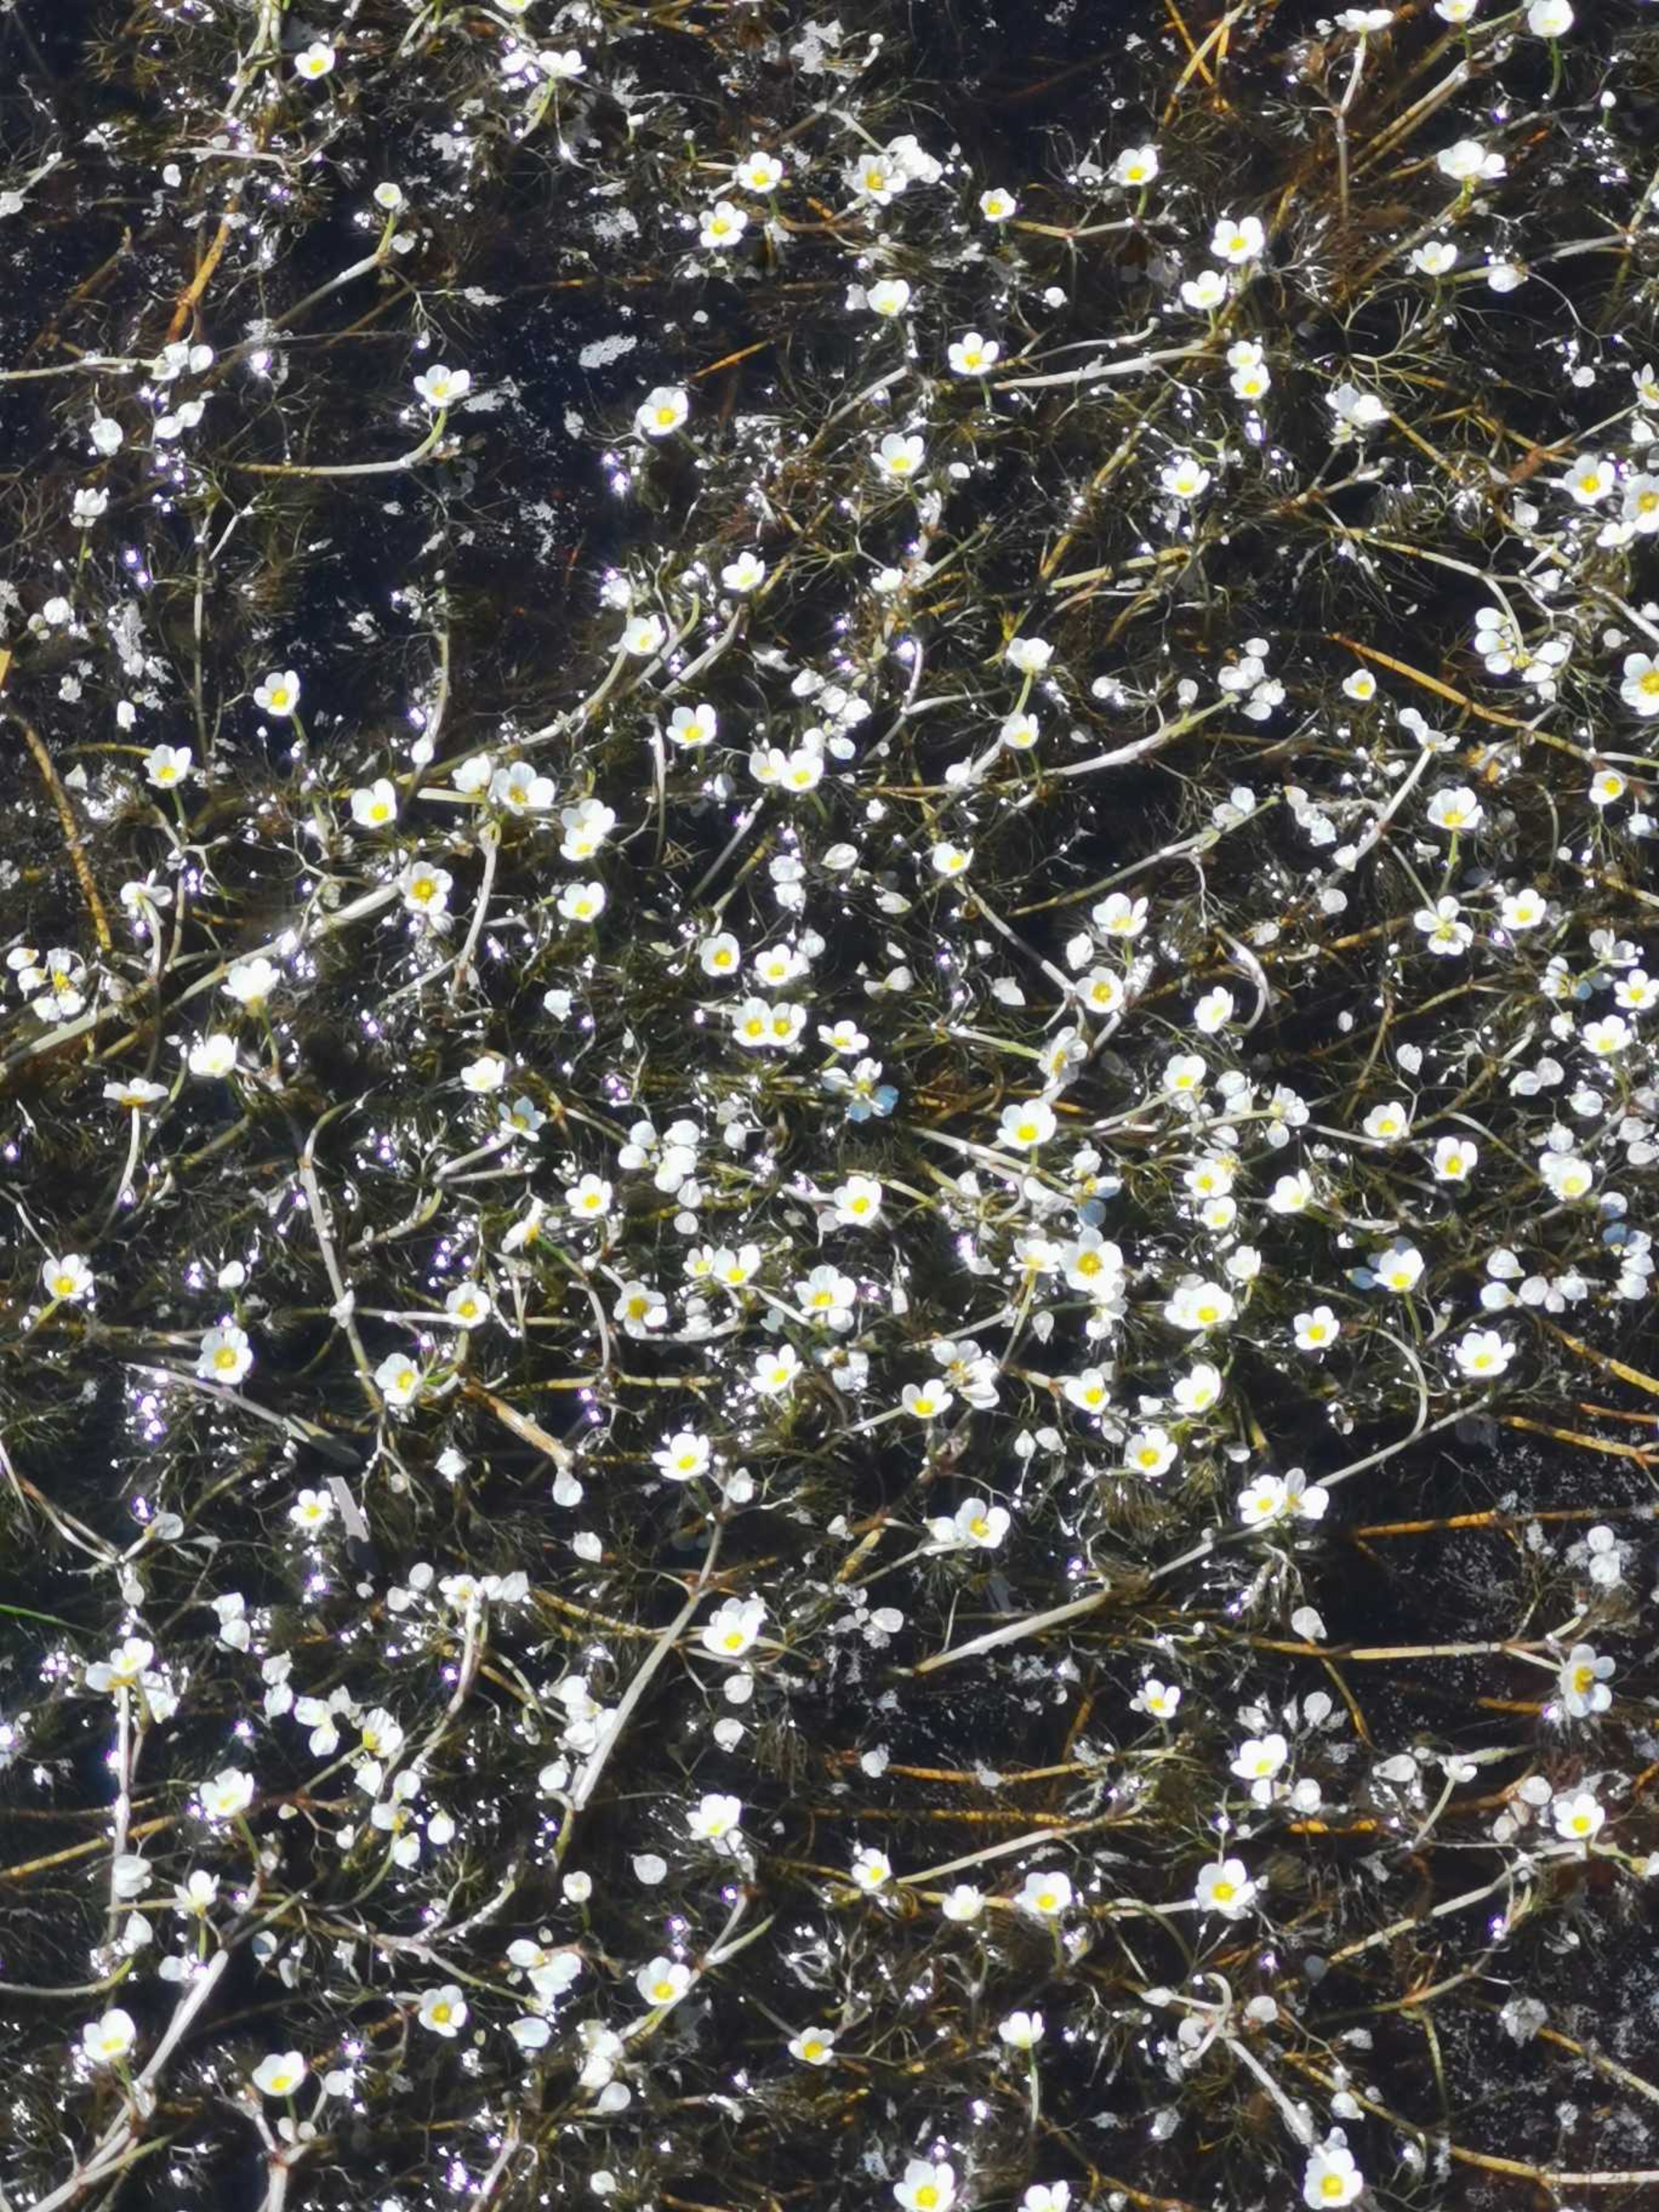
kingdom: Plantae
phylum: Tracheophyta
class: Magnoliopsida
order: Ranunculales
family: Ranunculaceae
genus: Ranunculus
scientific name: Ranunculus
